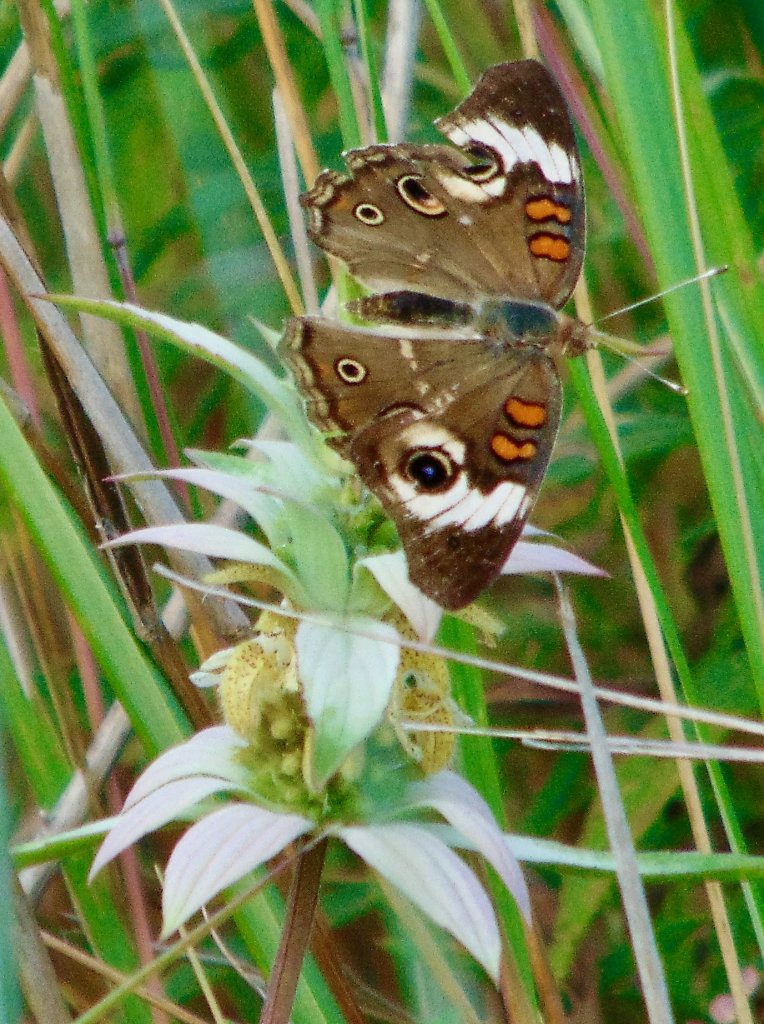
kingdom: Animalia
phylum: Arthropoda
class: Insecta
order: Lepidoptera
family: Nymphalidae
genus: Junonia
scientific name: Junonia coenia
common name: Common Buckeye
